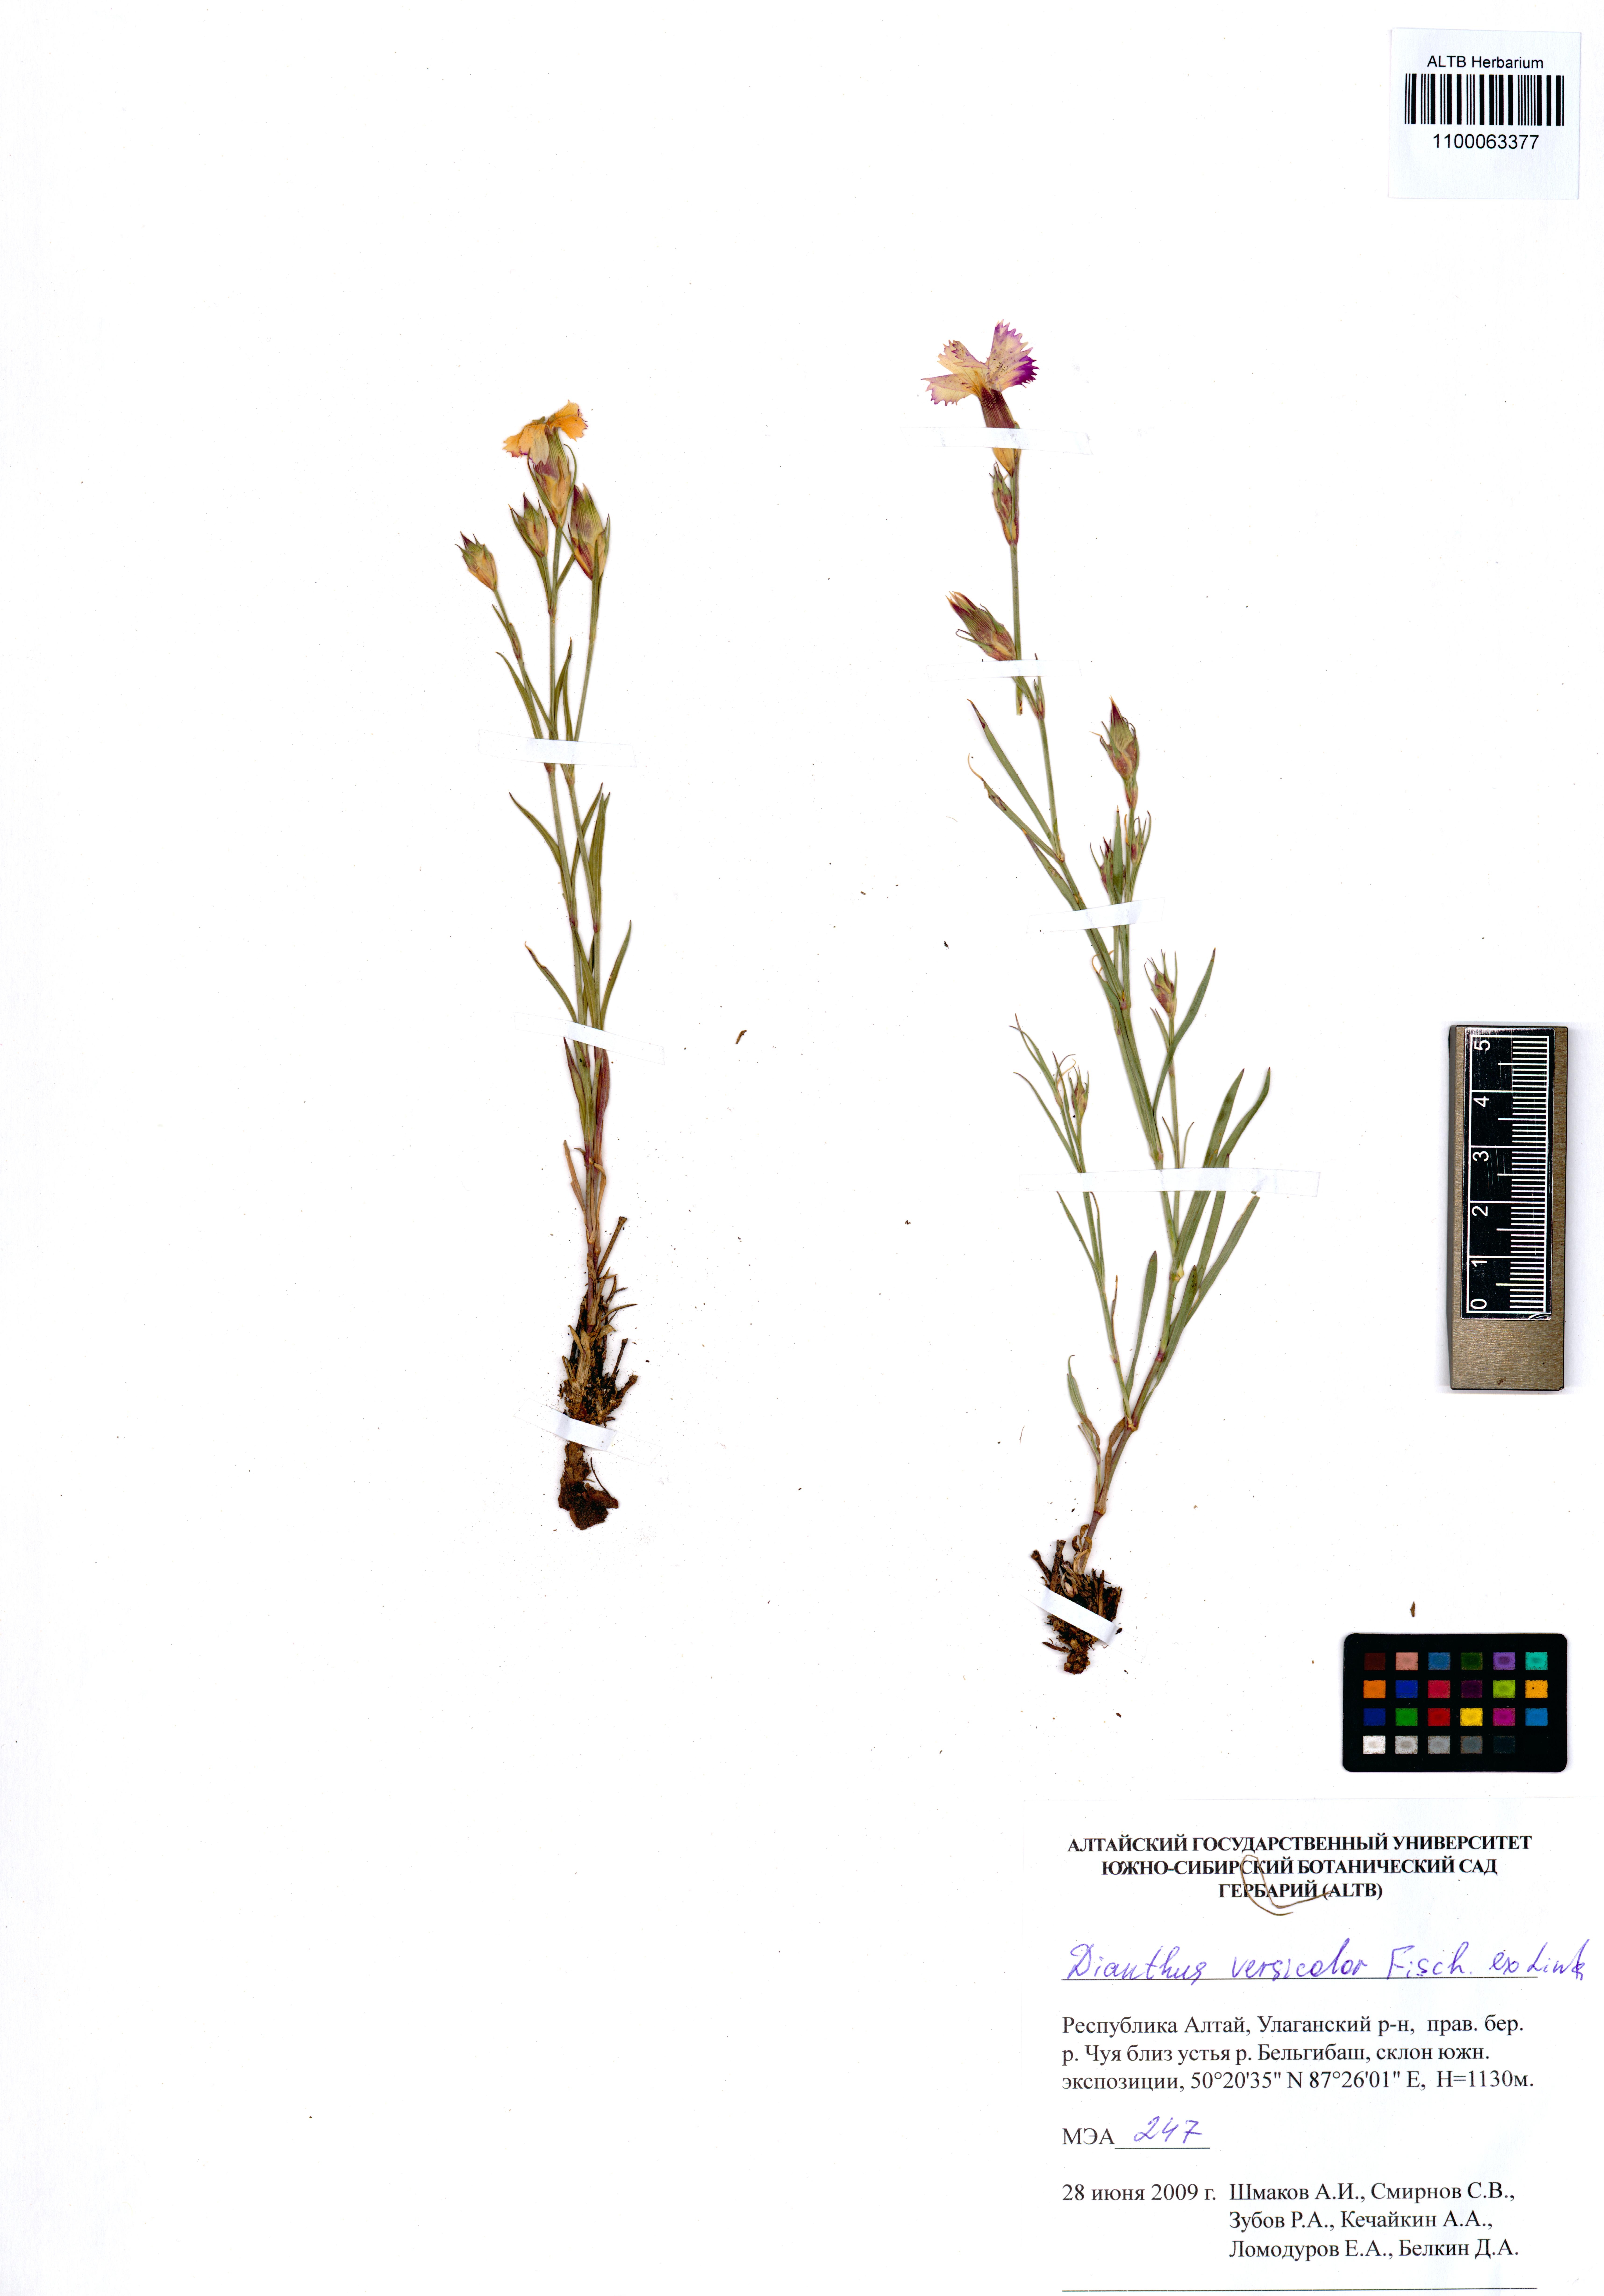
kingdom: Plantae
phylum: Tracheophyta
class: Magnoliopsida
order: Caryophyllales
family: Caryophyllaceae
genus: Dianthus
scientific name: Dianthus chinensis
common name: Rainbow pink
